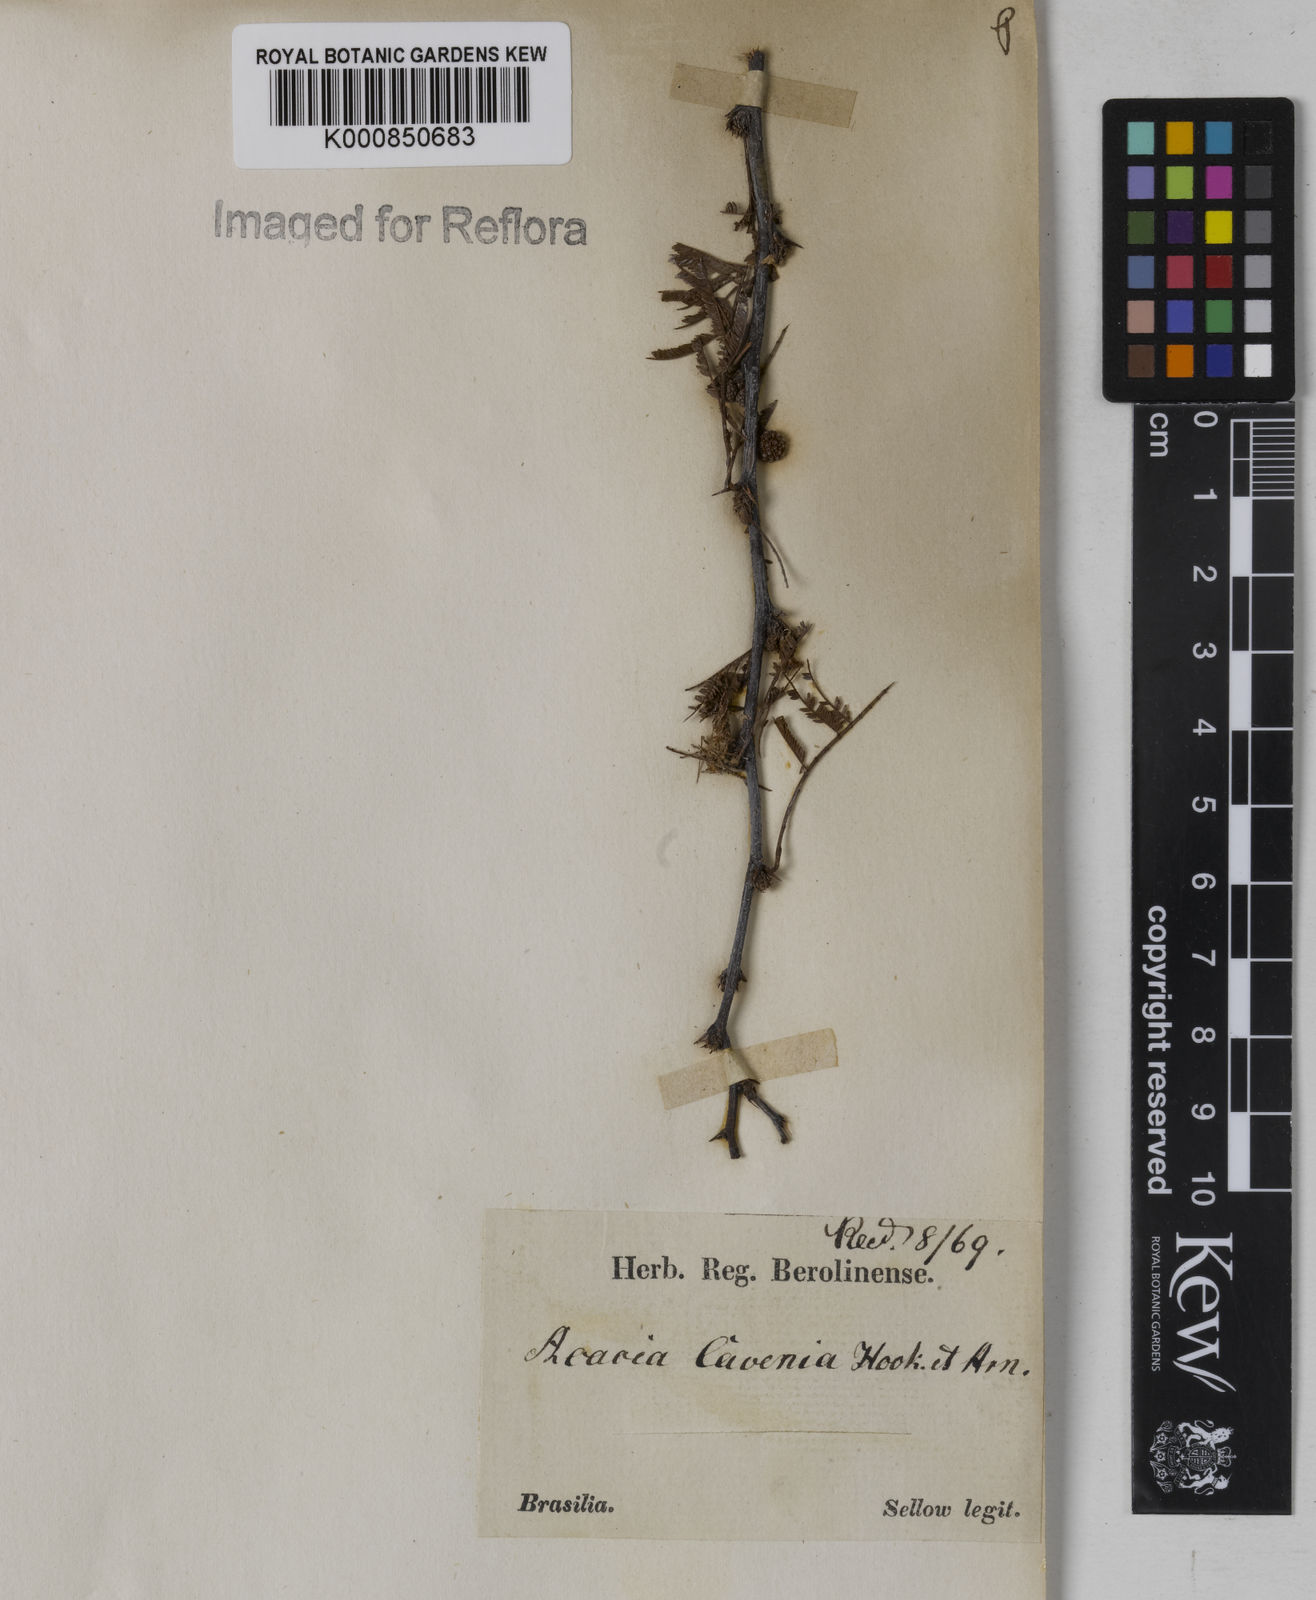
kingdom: Plantae
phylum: Tracheophyta
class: Magnoliopsida
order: Fabales
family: Fabaceae
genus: Vachellia
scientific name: Vachellia caven
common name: Roman cassie
